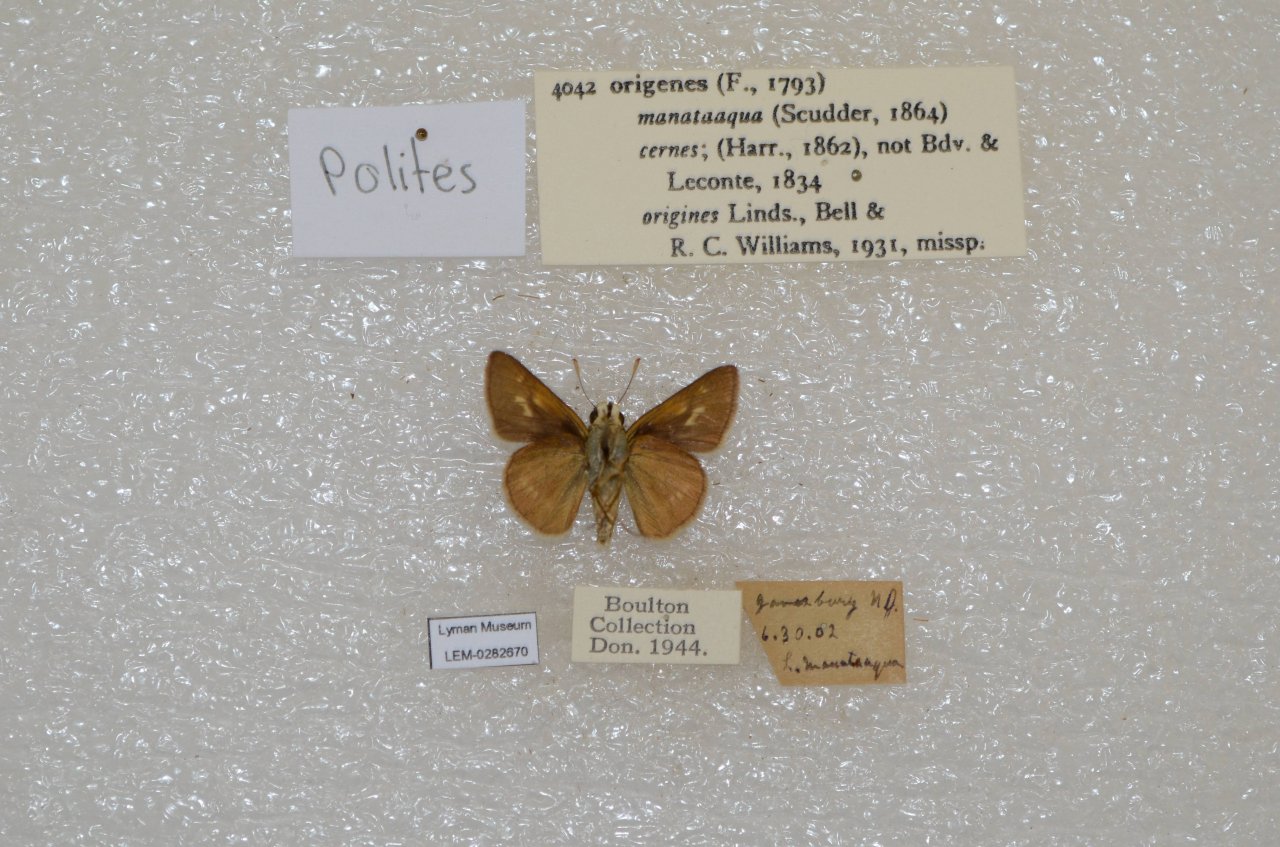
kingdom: Animalia
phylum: Arthropoda
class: Insecta
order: Lepidoptera
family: Hesperiidae
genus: Polites
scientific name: Polites
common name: Crossline Skipper
